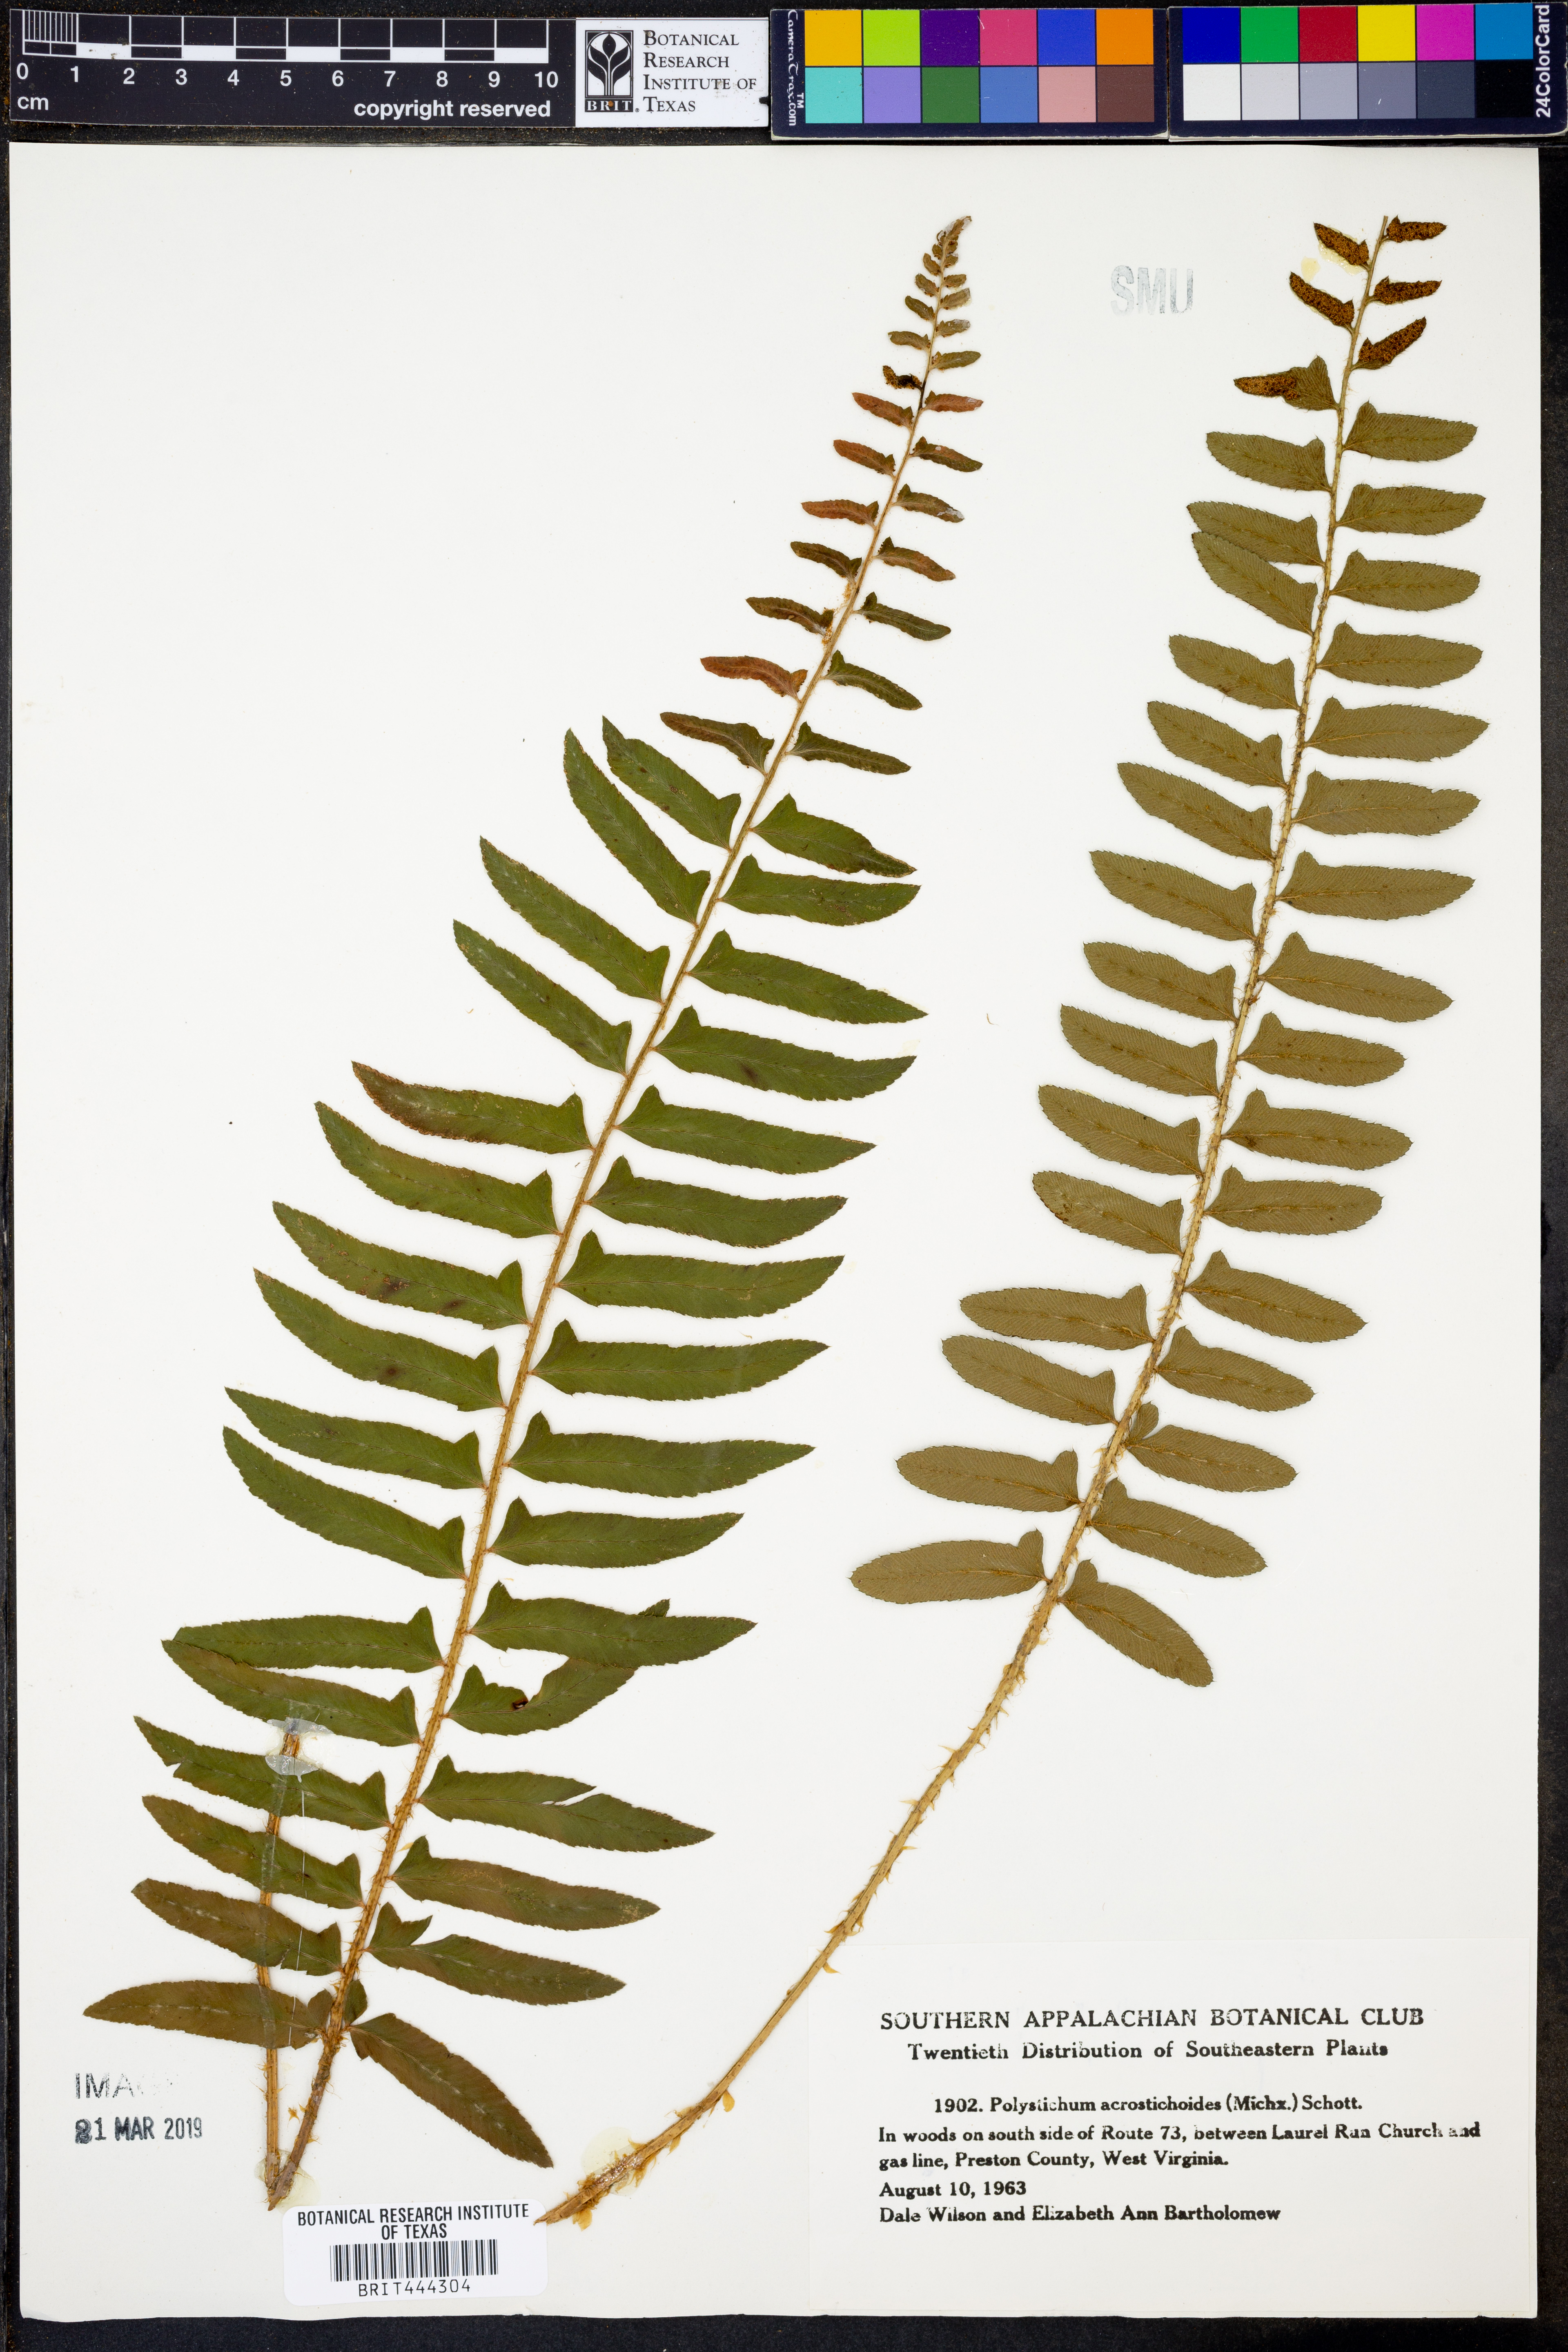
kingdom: Plantae
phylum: Tracheophyta
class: Polypodiopsida
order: Polypodiales
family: Dryopteridaceae
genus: Polystichum
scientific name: Polystichum acrostichoides
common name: Christmas fern
